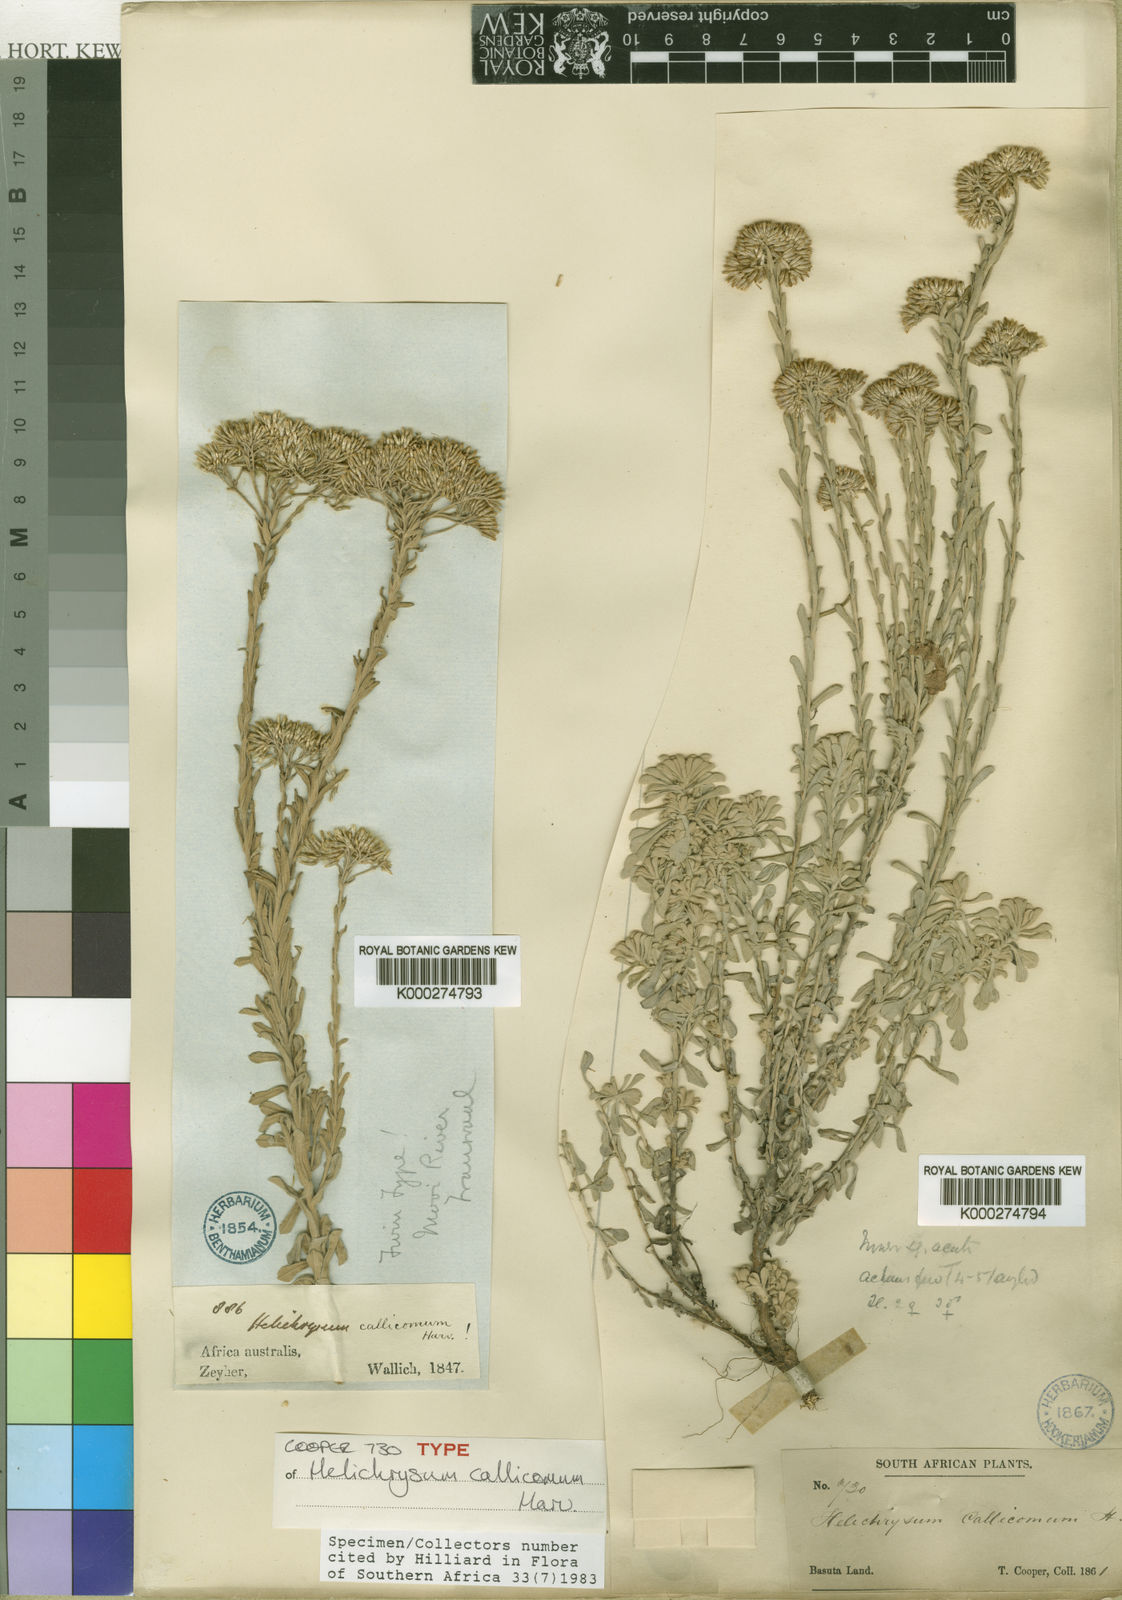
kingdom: Plantae
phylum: Tracheophyta
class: Magnoliopsida
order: Asterales
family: Asteraceae
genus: Helichrysum
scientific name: Helichrysum callicomum
